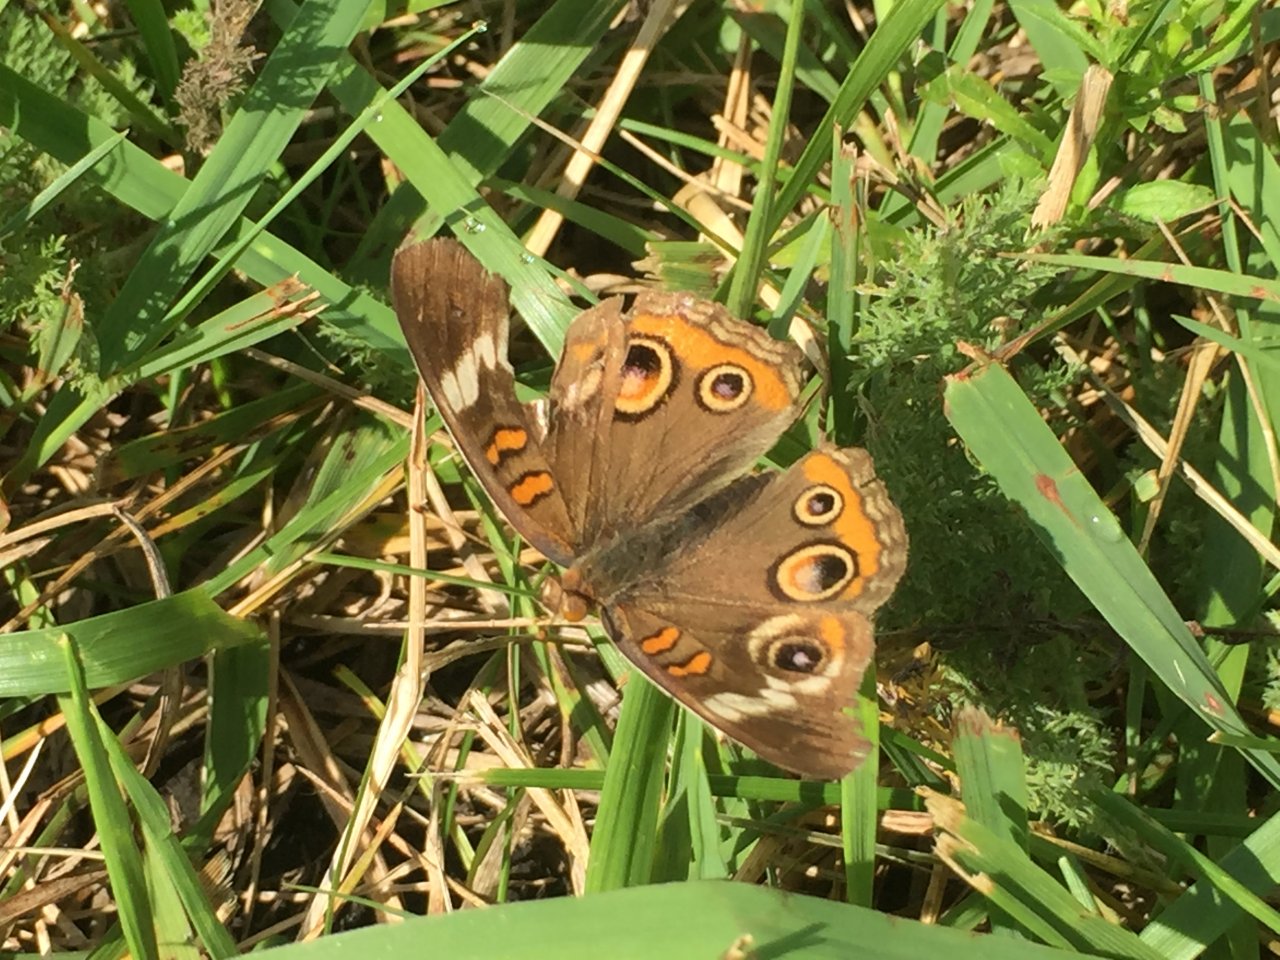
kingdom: Animalia
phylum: Arthropoda
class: Insecta
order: Lepidoptera
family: Nymphalidae
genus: Junonia
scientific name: Junonia coenia
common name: Common Buckeye
